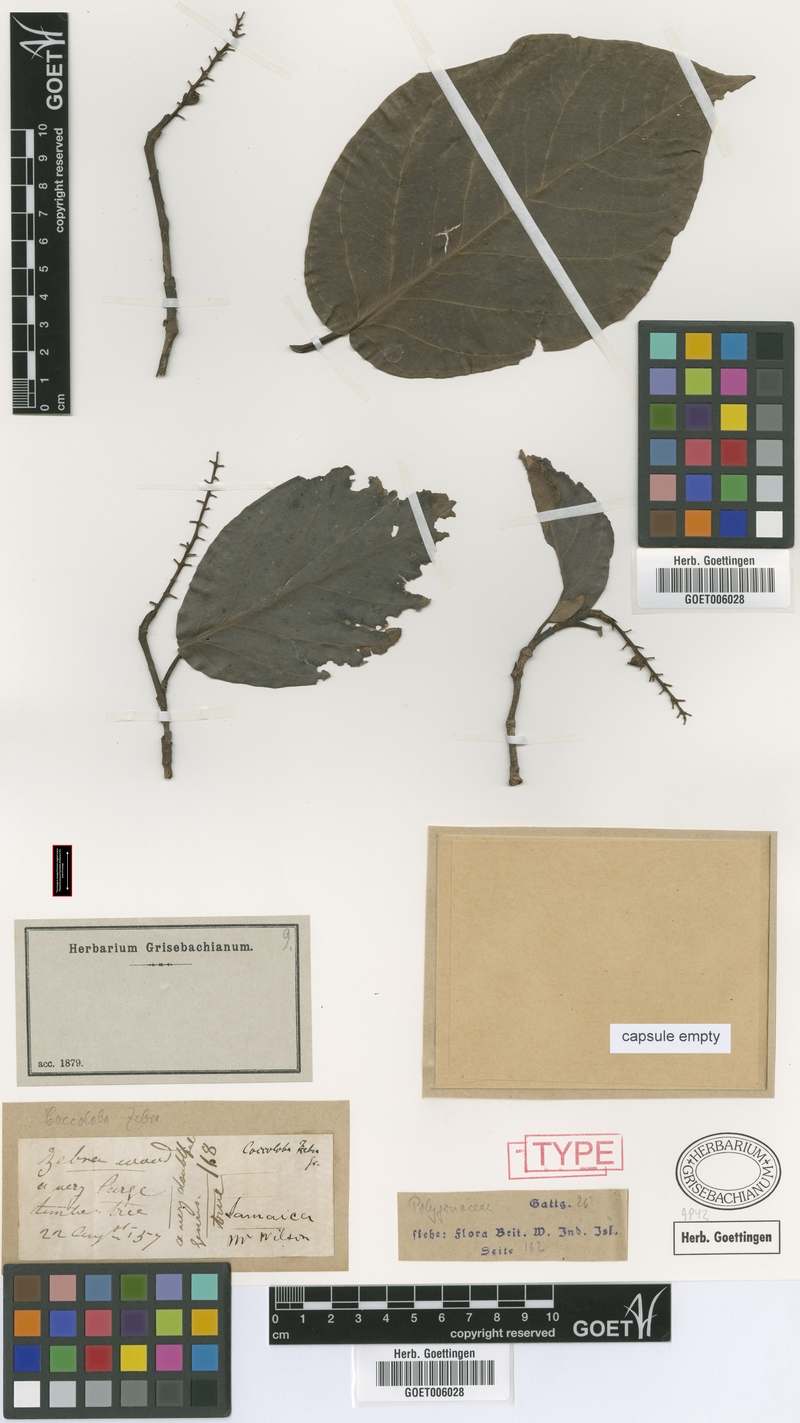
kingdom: Plantae
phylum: Tracheophyta
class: Magnoliopsida
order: Caryophyllales
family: Polygonaceae
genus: Coccoloba
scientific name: Coccoloba zebra
